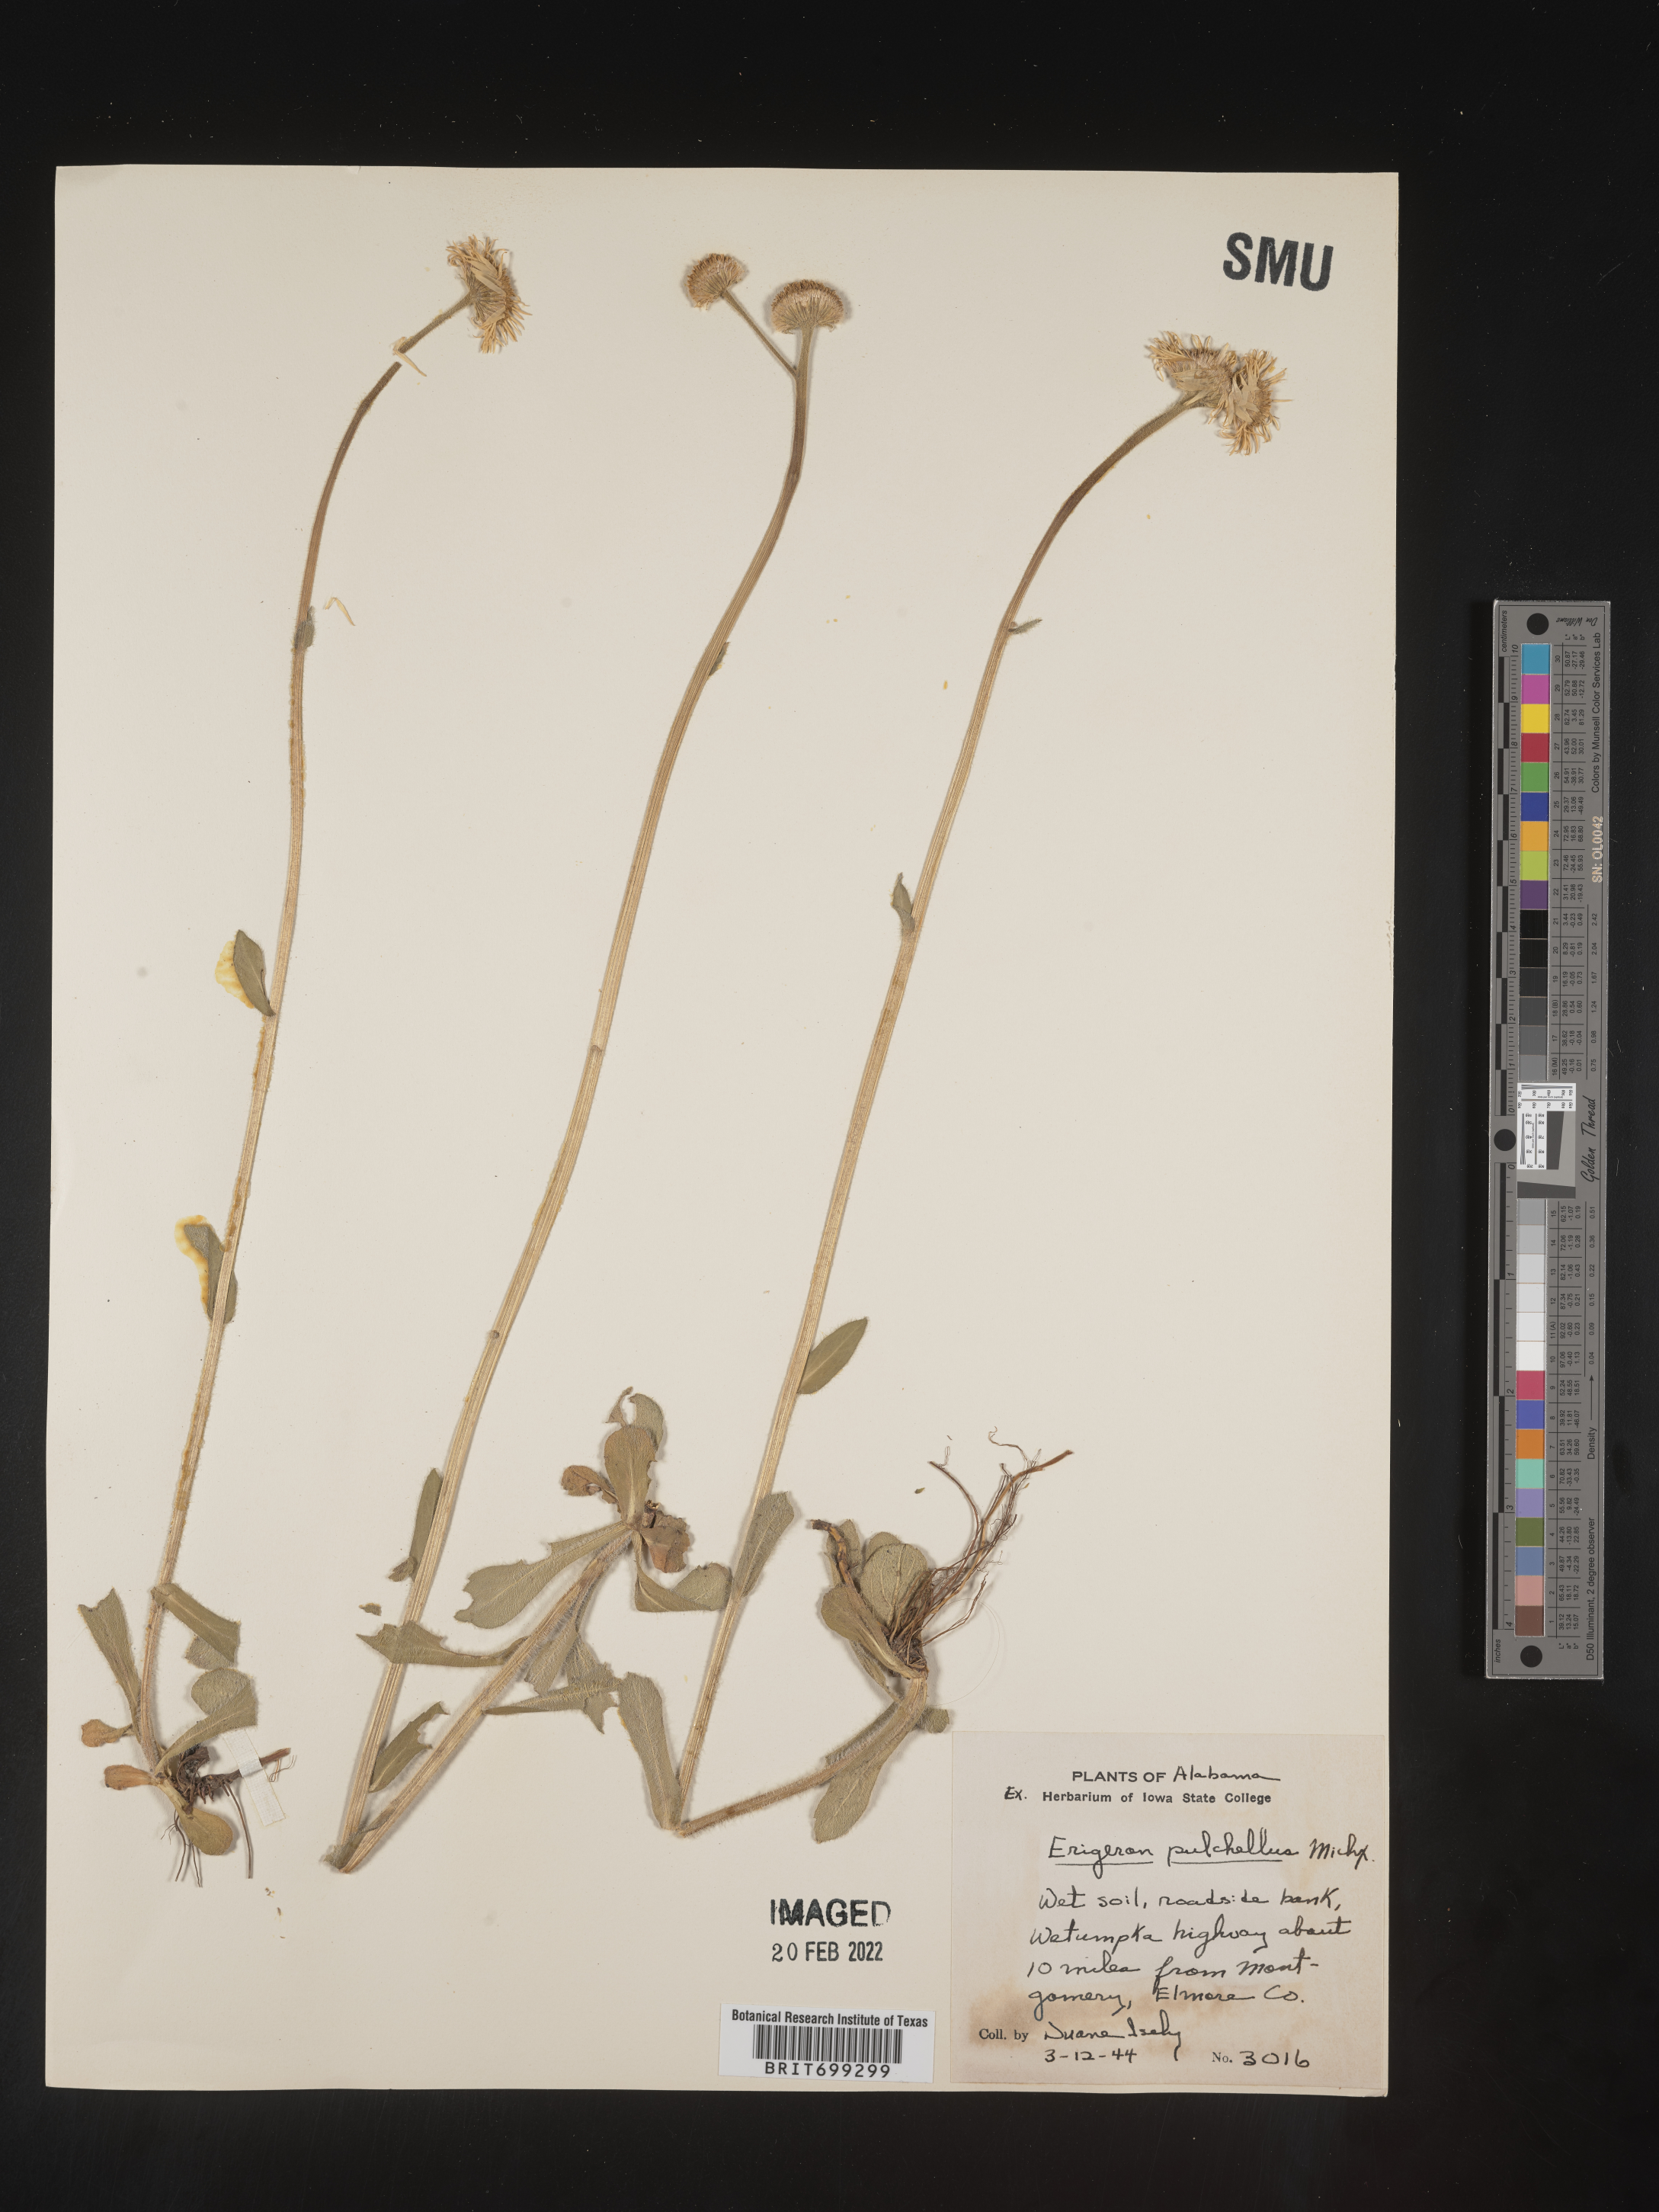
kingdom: Plantae
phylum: Tracheophyta
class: Magnoliopsida
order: Asterales
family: Asteraceae
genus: Erigeron
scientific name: Erigeron pulchellus
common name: Hairy fleabane
